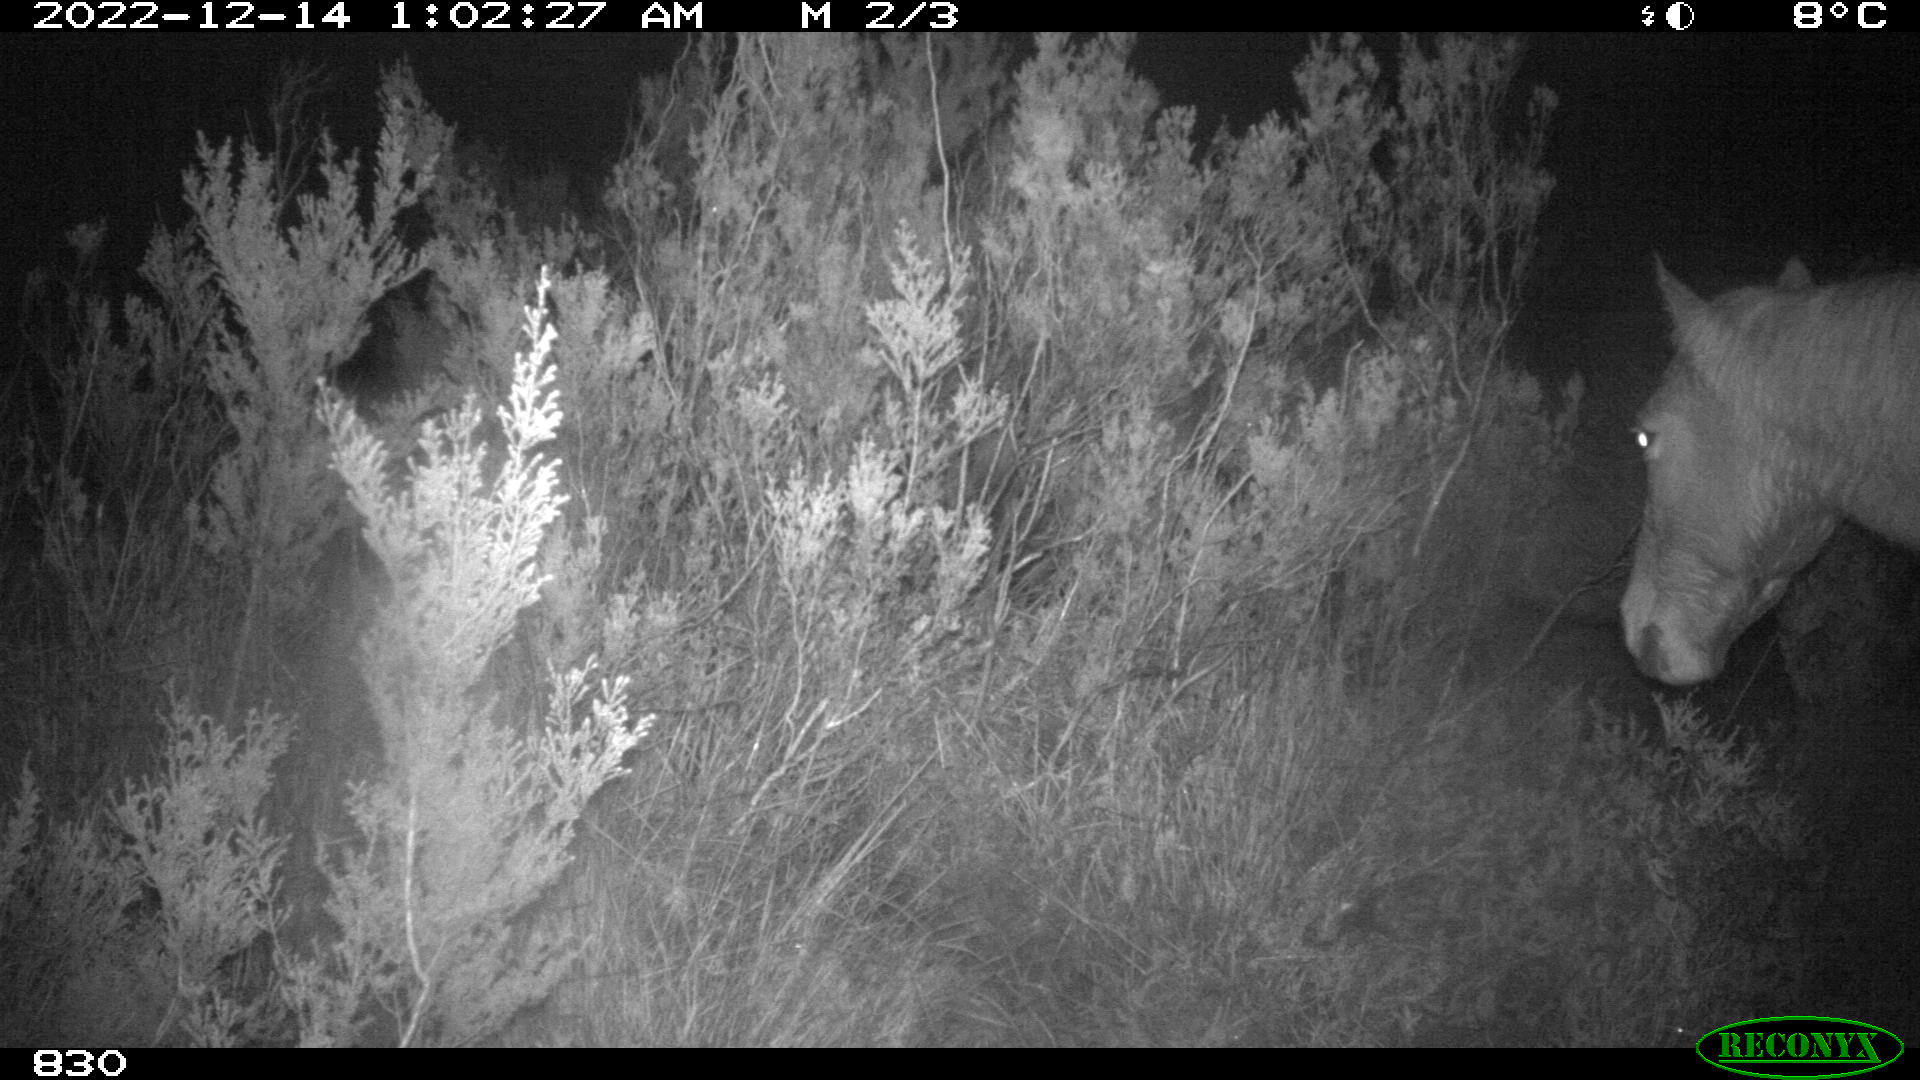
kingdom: Animalia
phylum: Chordata
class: Mammalia
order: Perissodactyla
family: Equidae
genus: Equus
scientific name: Equus caballus
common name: Horse
